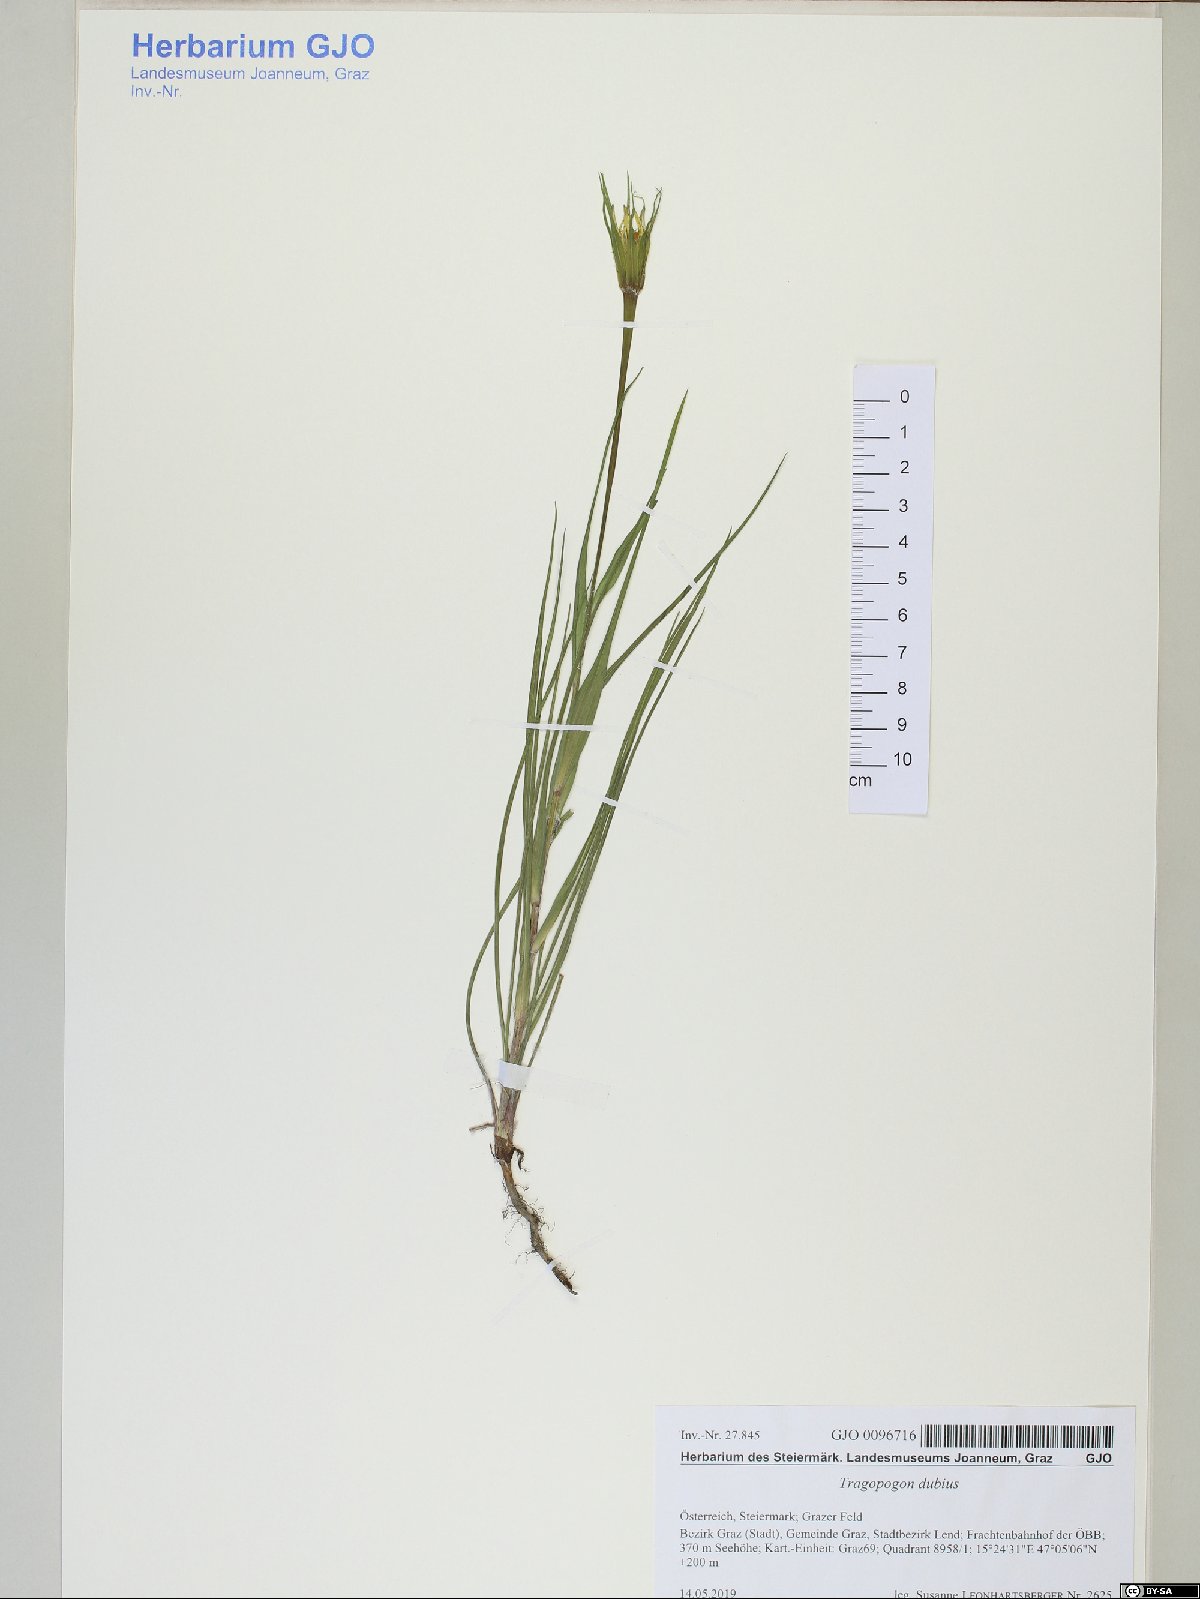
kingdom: Plantae
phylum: Tracheophyta
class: Magnoliopsida
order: Asterales
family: Asteraceae
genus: Tragopogon
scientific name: Tragopogon dubius
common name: Yellow salsify
